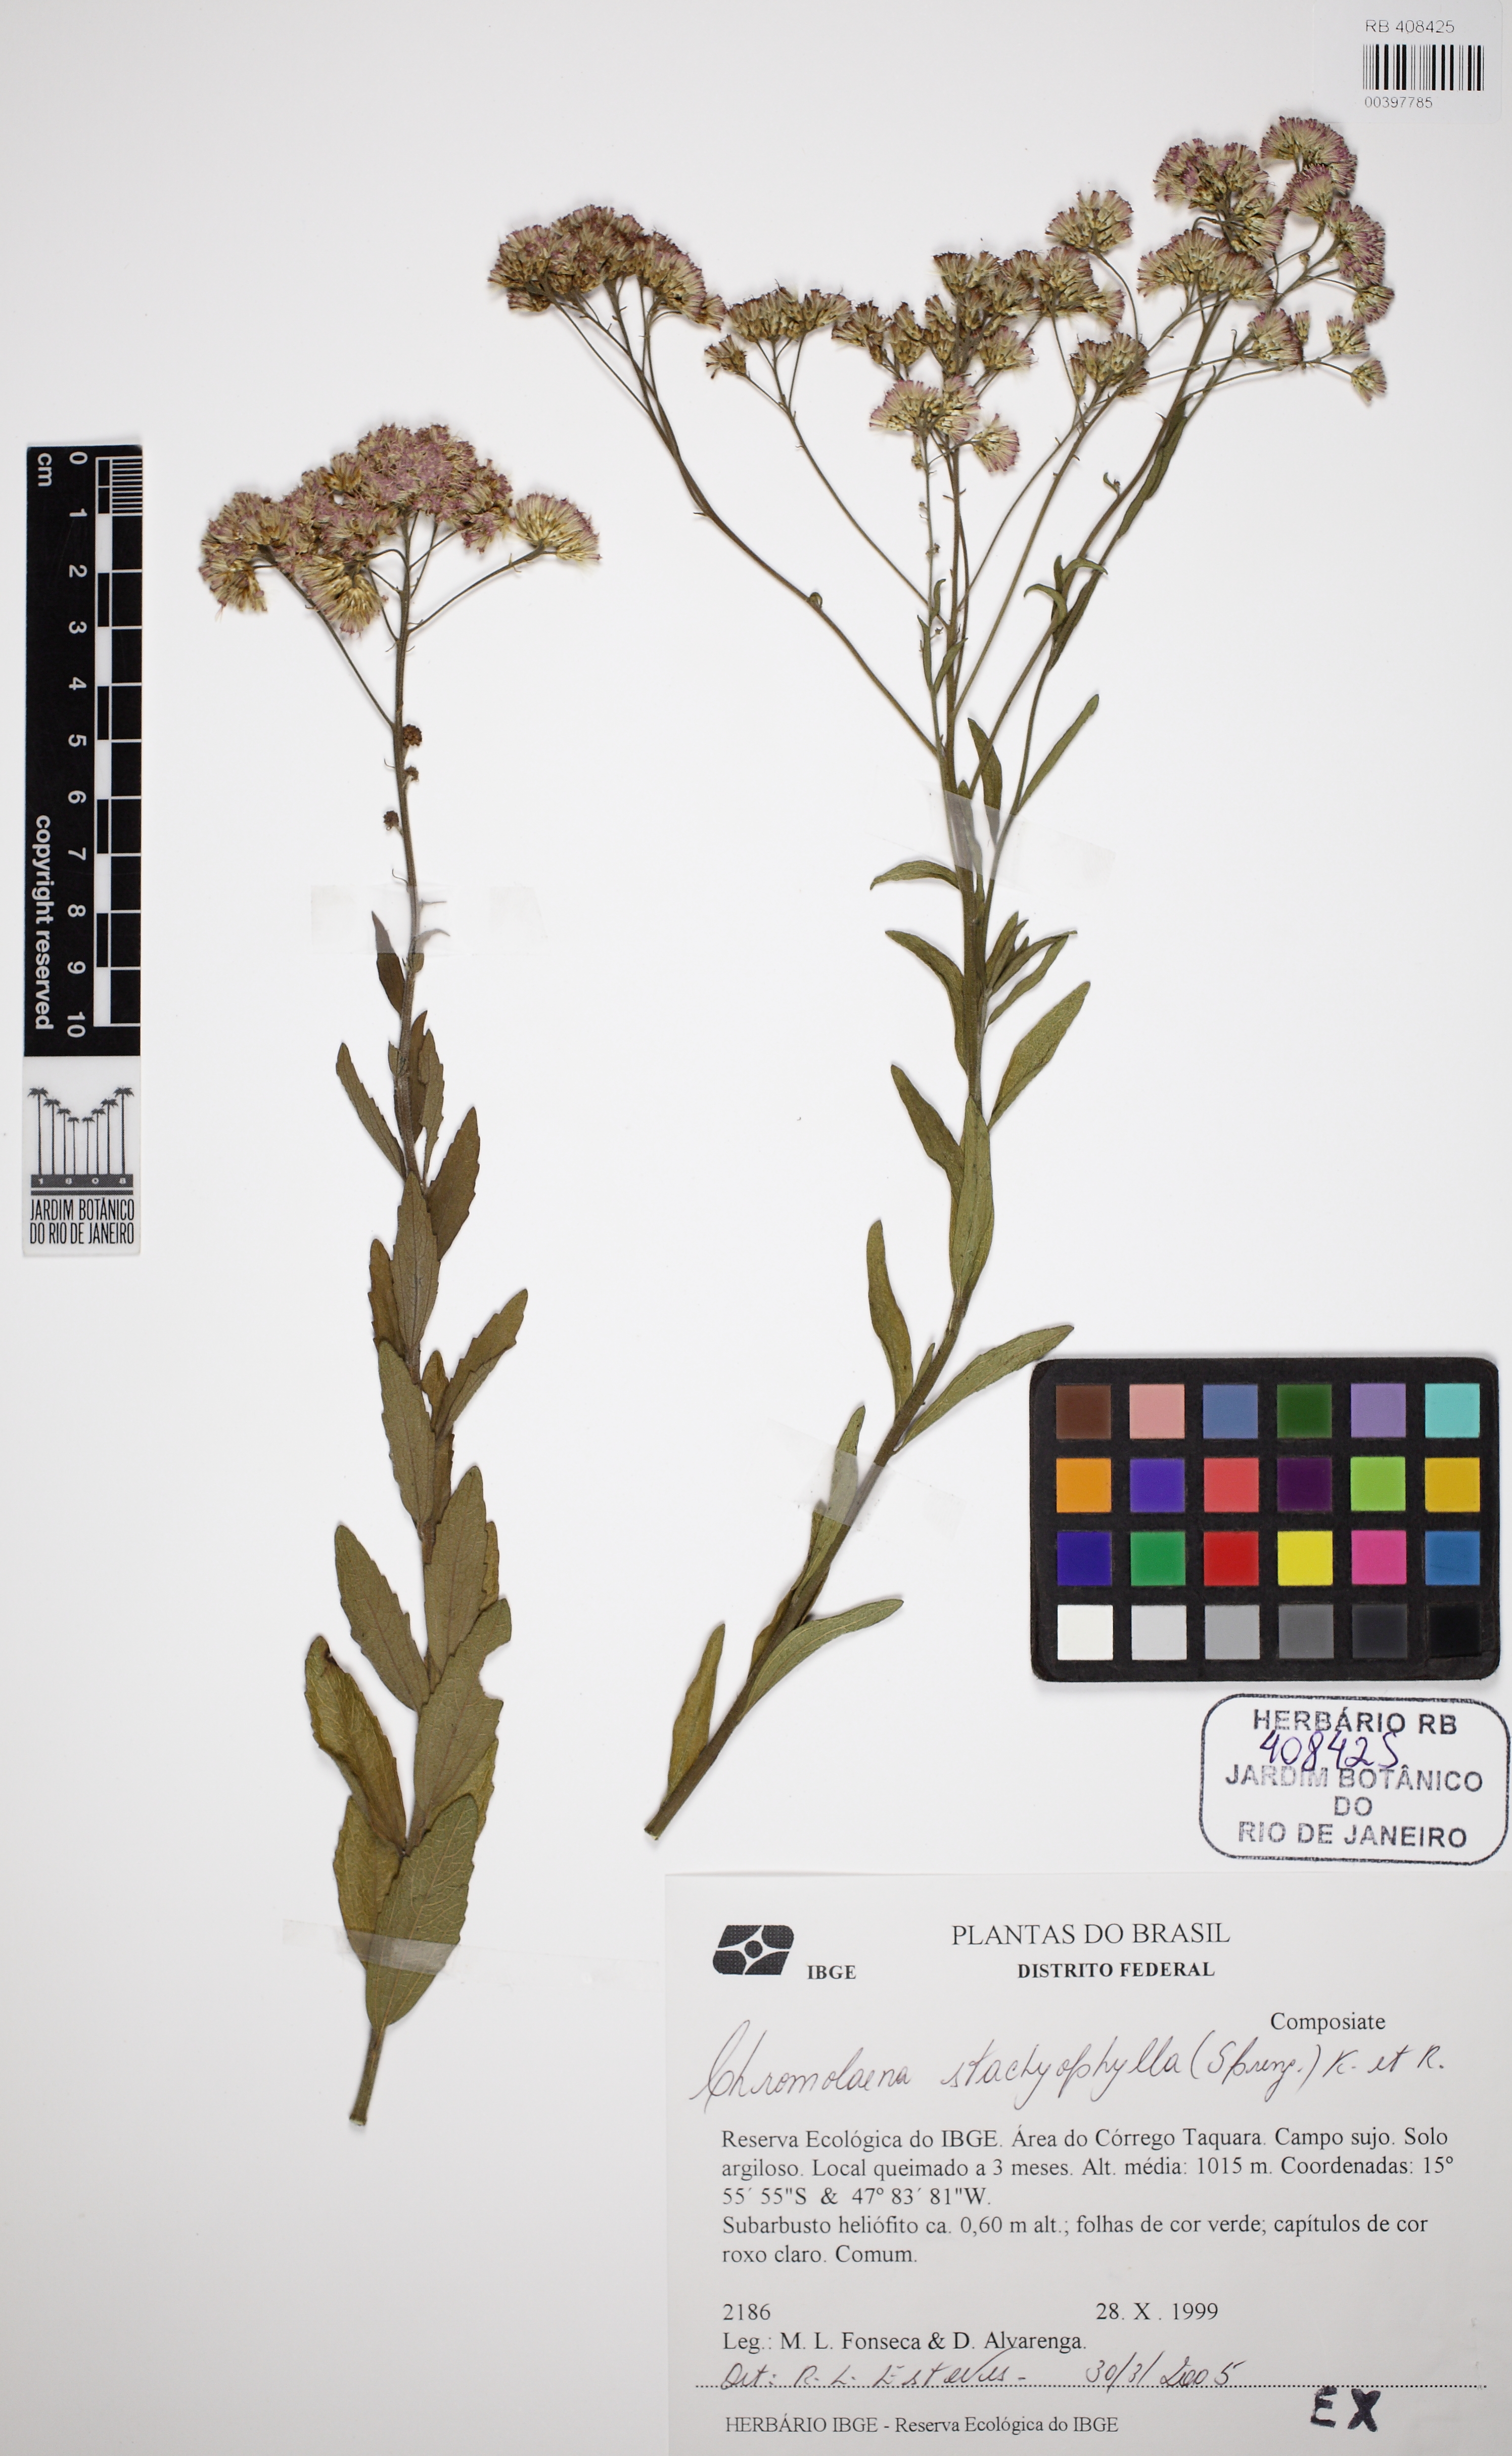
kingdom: Plantae
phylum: Tracheophyta
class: Magnoliopsida
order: Asterales
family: Asteraceae
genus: Chromolaena
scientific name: Chromolaena stachyophylla
